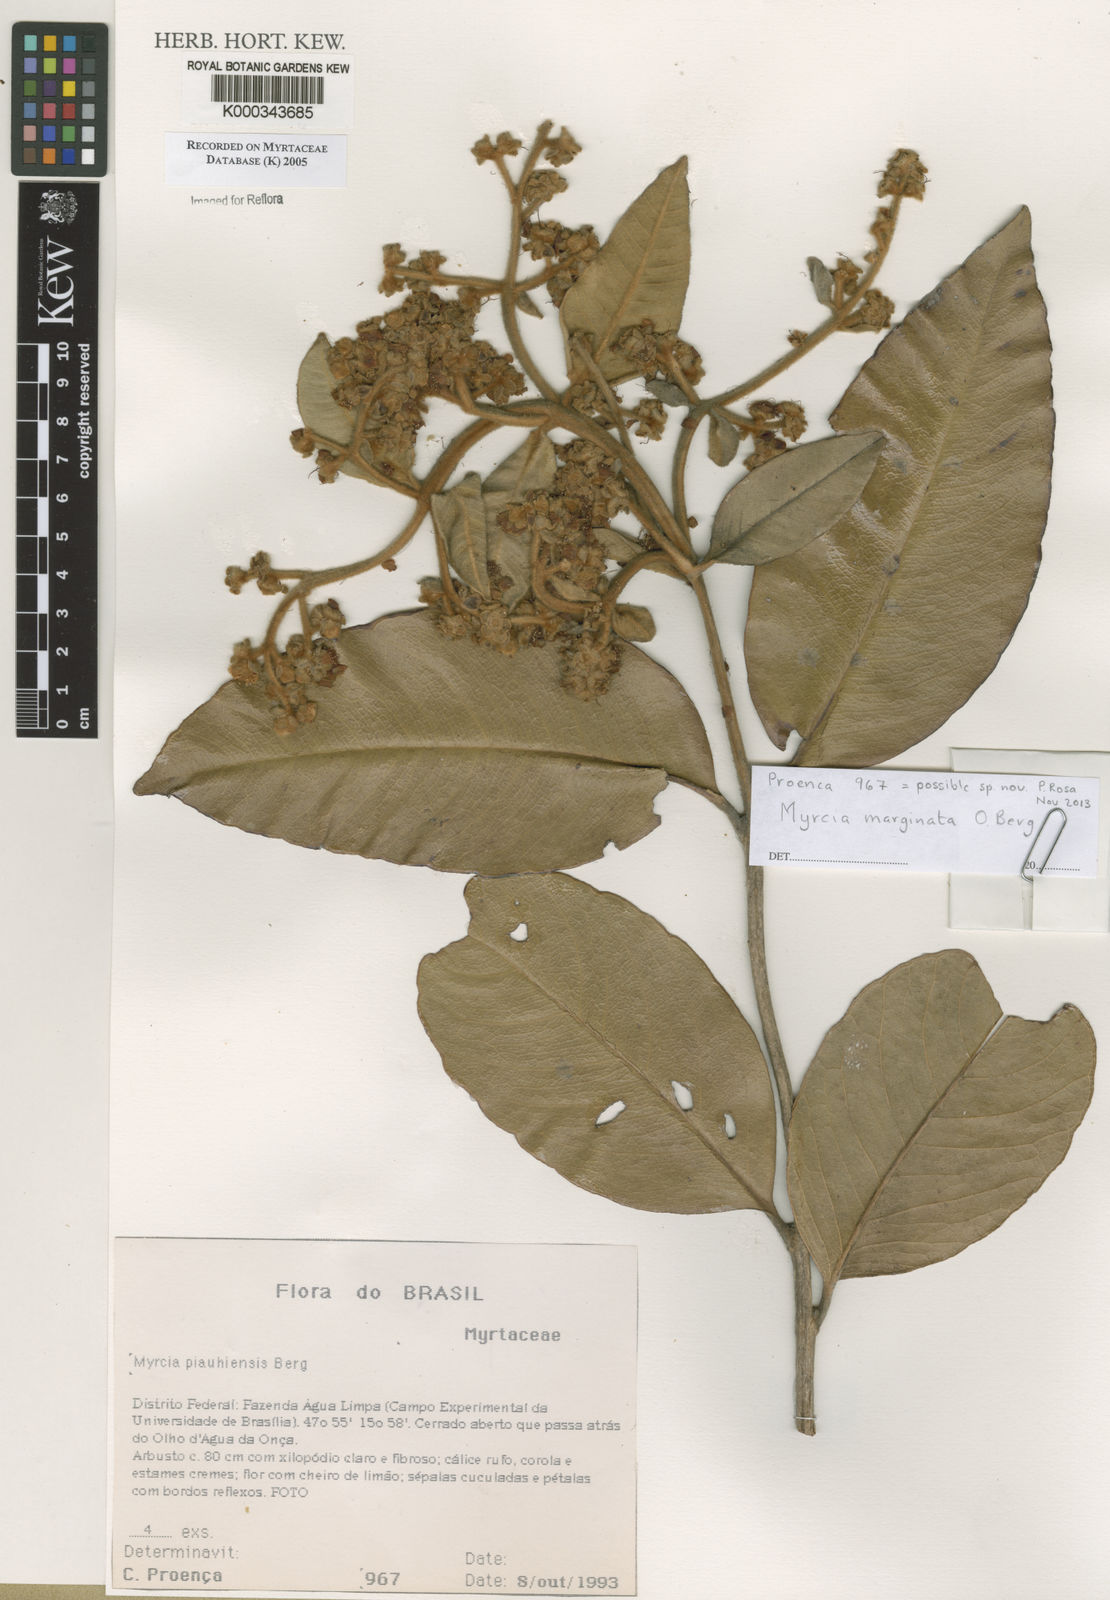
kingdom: Plantae
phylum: Tracheophyta
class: Magnoliopsida
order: Myrtales
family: Myrtaceae
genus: Myrcia
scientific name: Myrcia tomentosa
